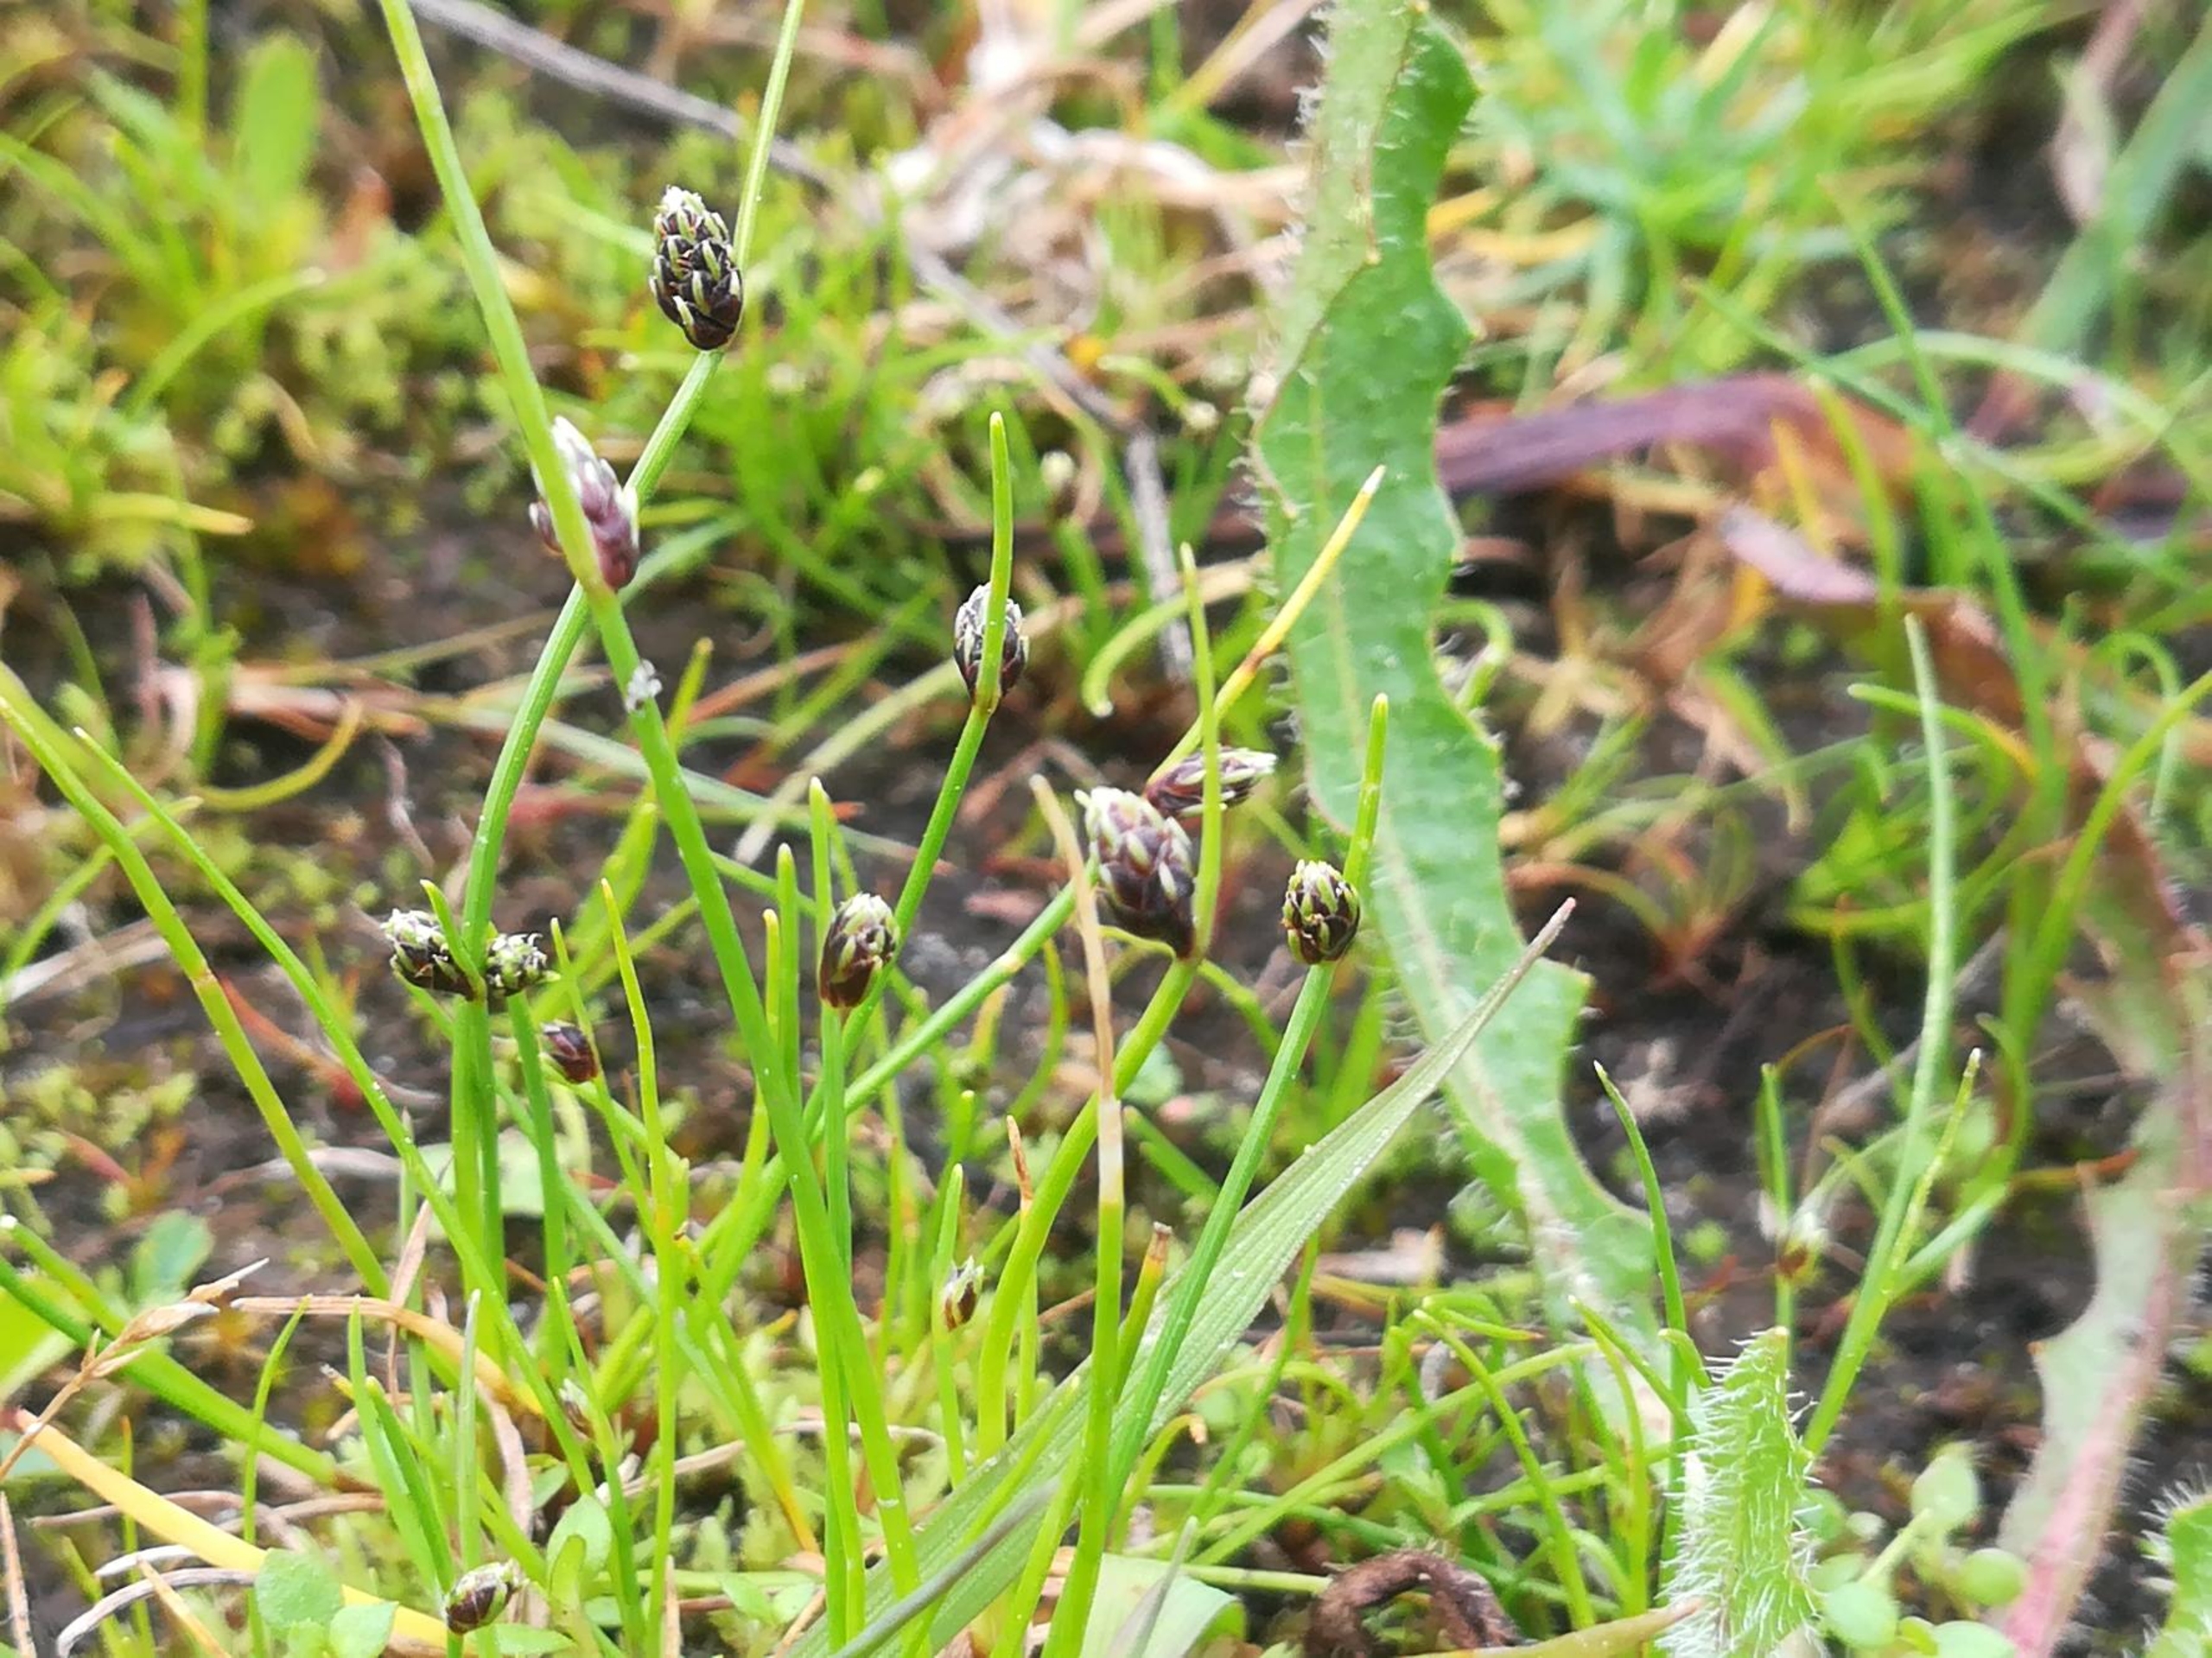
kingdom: Plantae
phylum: Tracheophyta
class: Liliopsida
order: Poales
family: Cyperaceae
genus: Isolepis
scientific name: Isolepis setacea
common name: Børste-kogleaks
